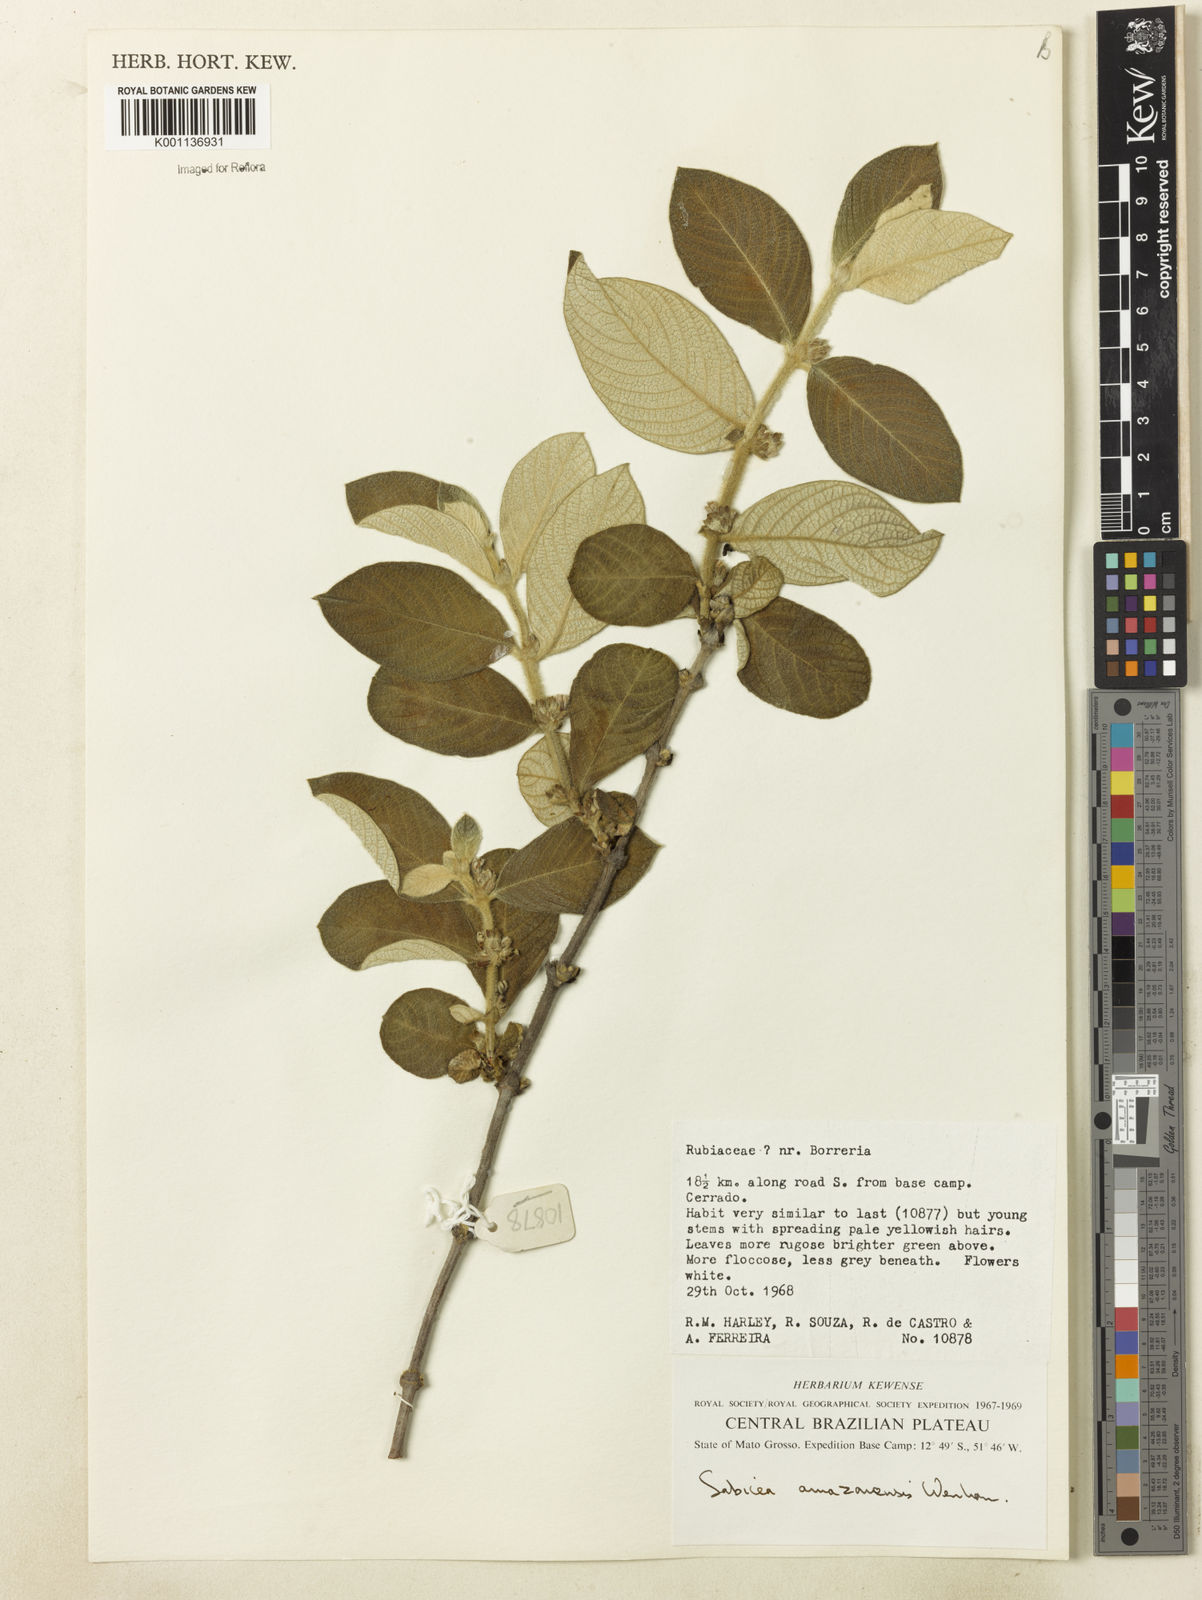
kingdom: Plantae
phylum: Tracheophyta
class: Magnoliopsida
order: Gentianales
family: Rubiaceae
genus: Sabicea
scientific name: Sabicea brasiliensis
